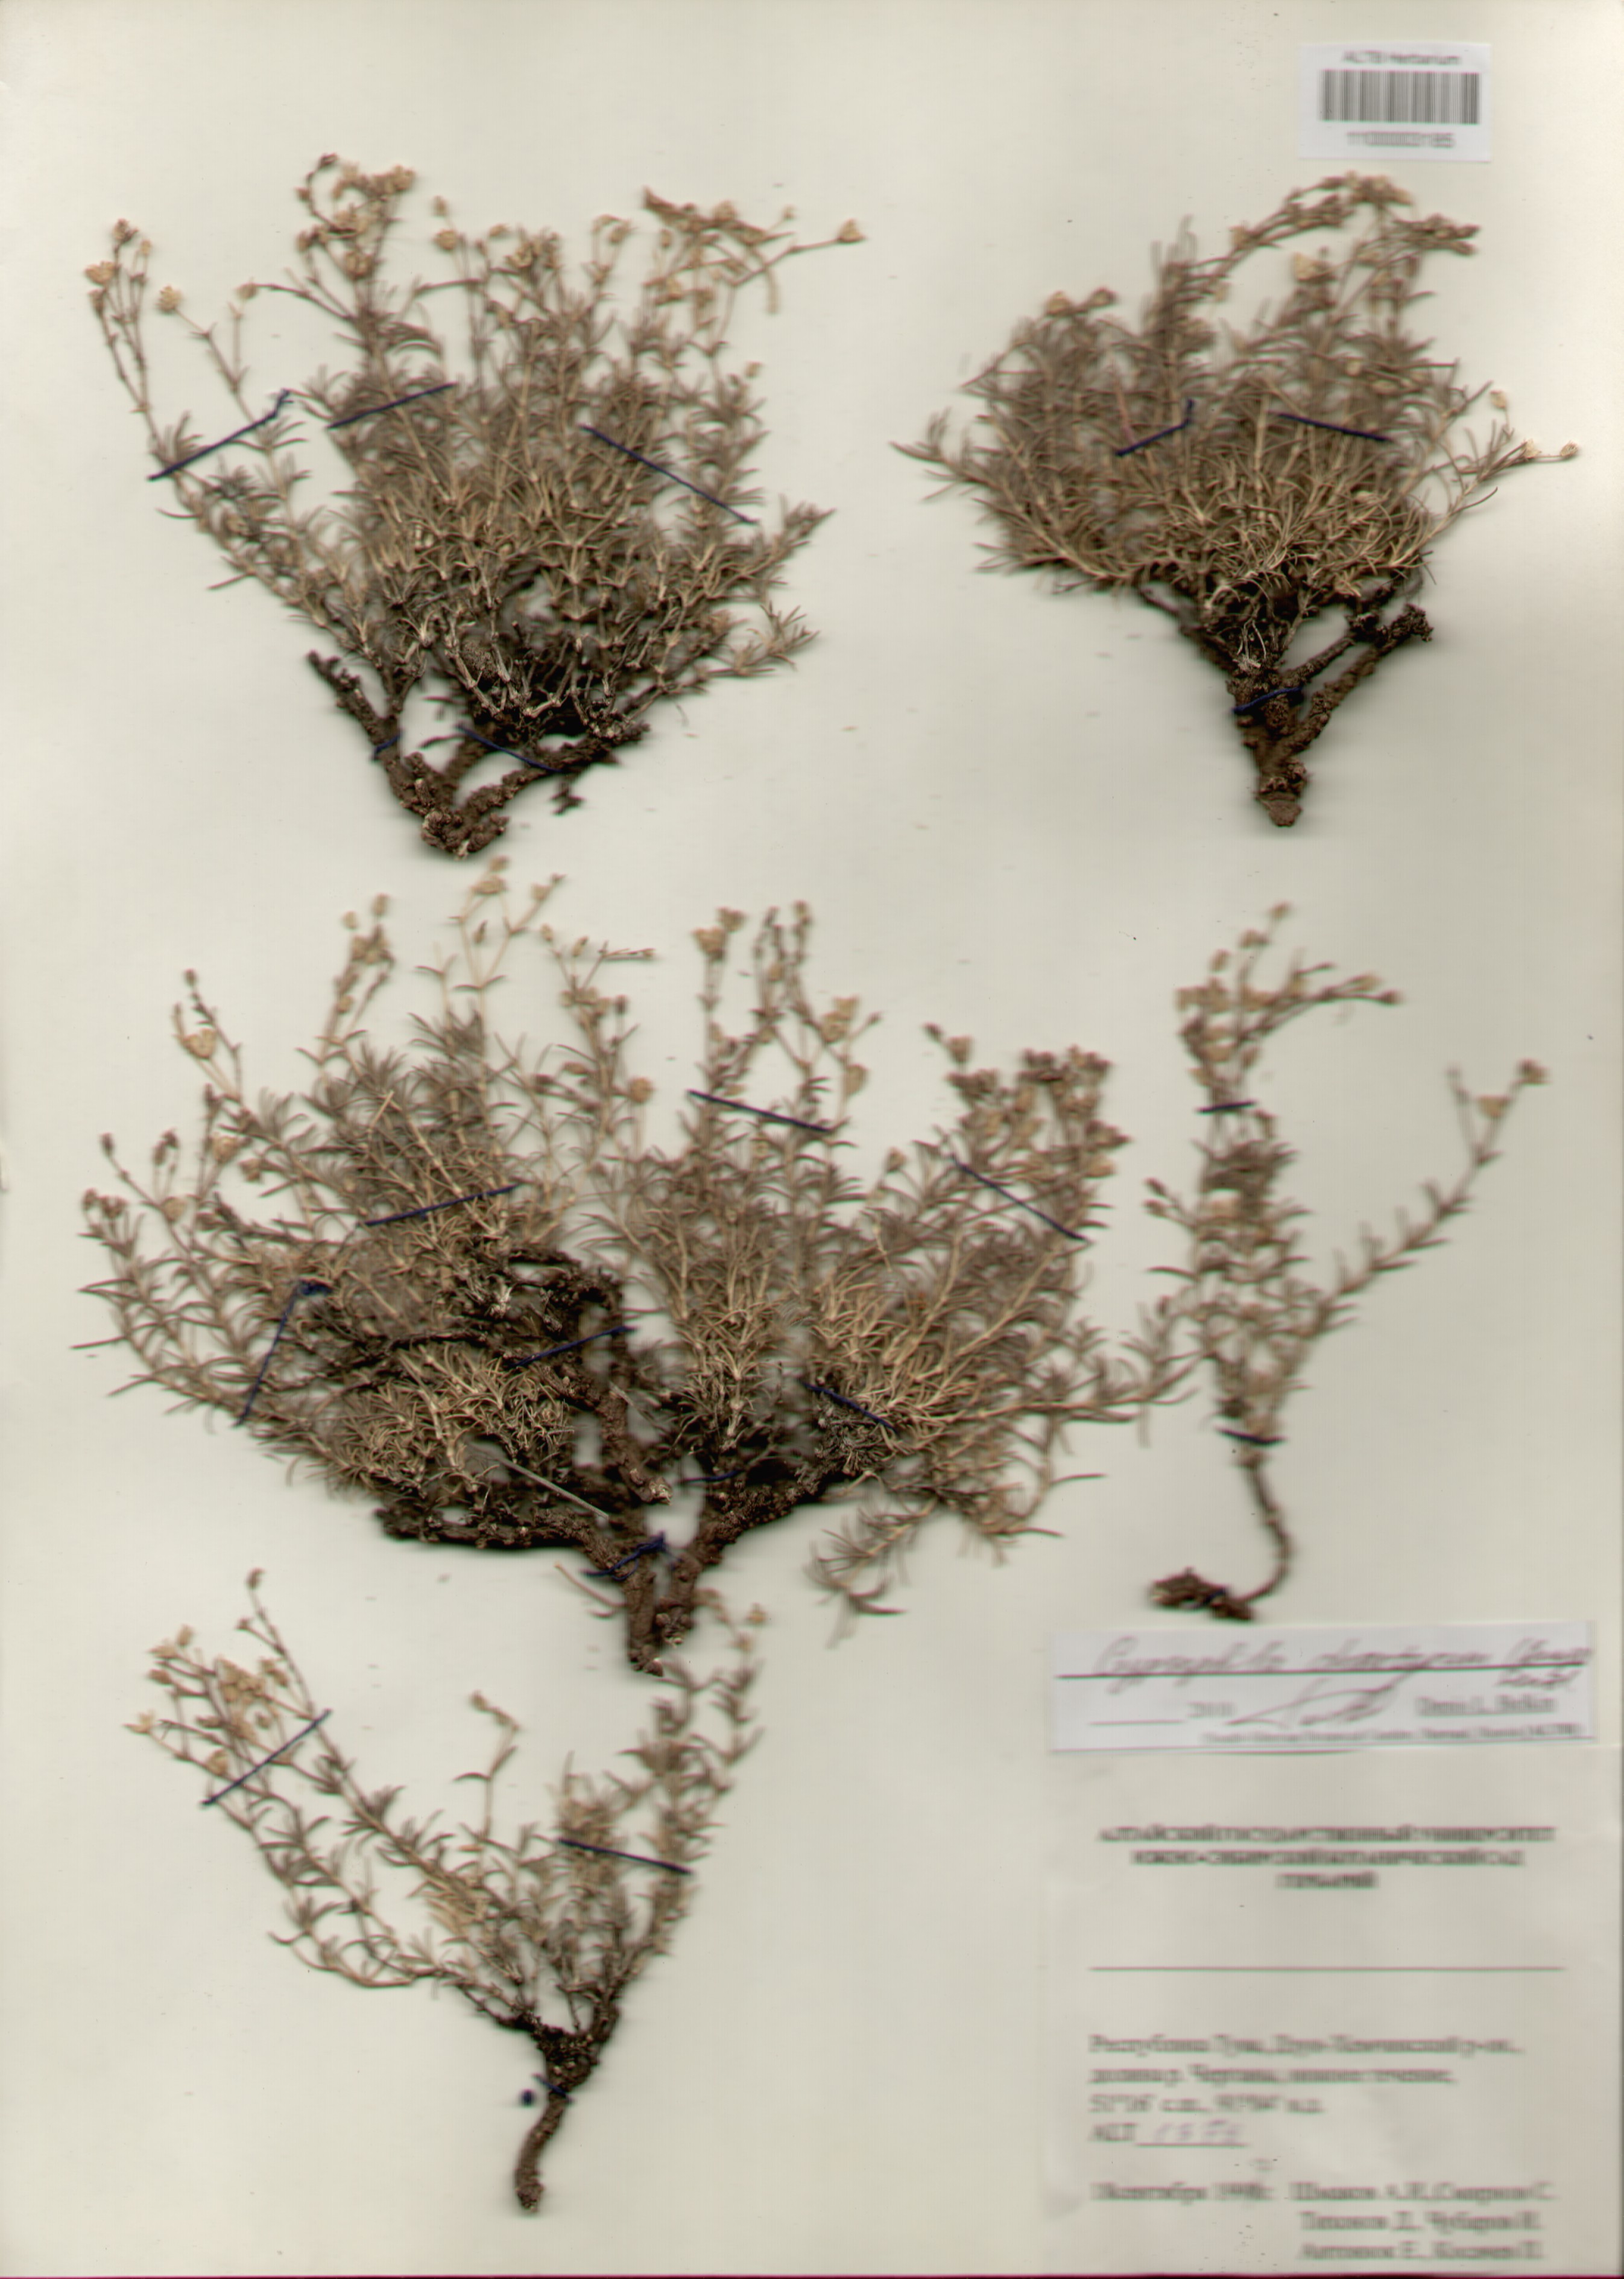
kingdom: Plantae
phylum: Tracheophyta
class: Magnoliopsida
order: Caryophyllales
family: Caryophyllaceae
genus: Heterochroa
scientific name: Heterochroa desertorum
